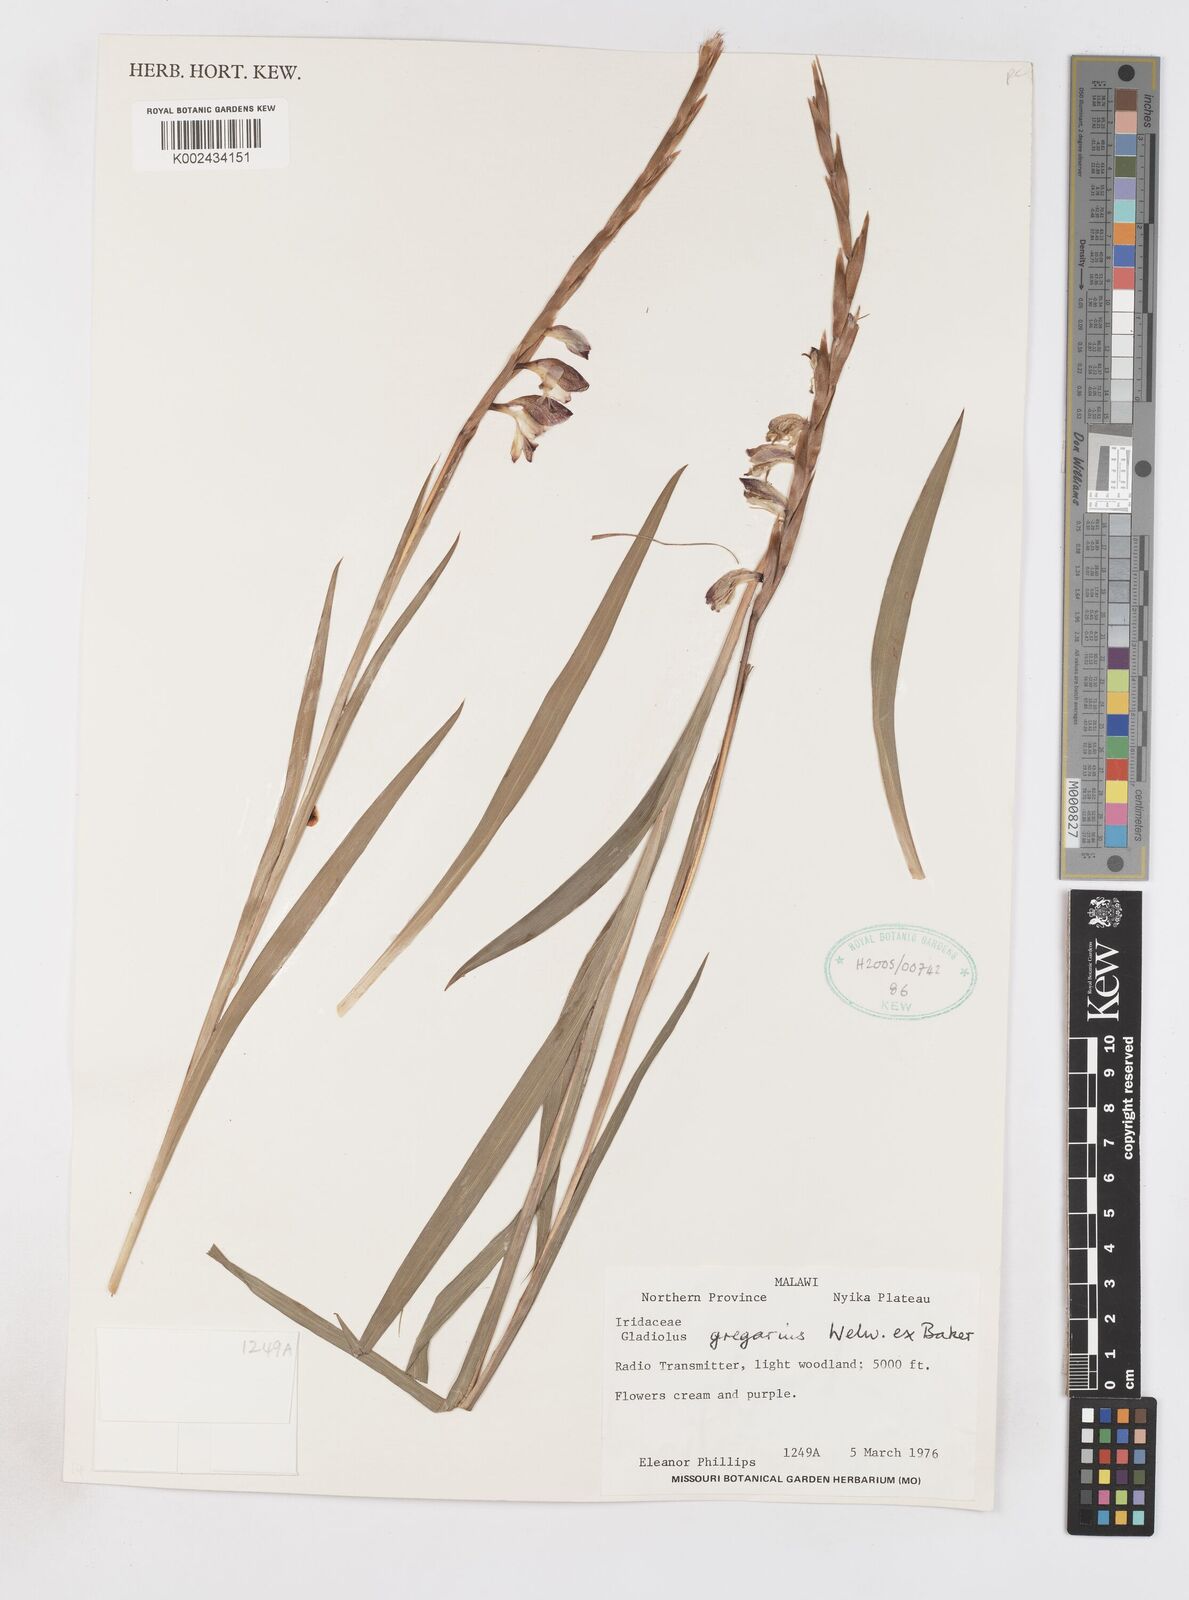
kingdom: Plantae
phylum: Tracheophyta
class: Liliopsida
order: Asparagales
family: Iridaceae
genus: Gladiolus
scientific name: Gladiolus gregarius
